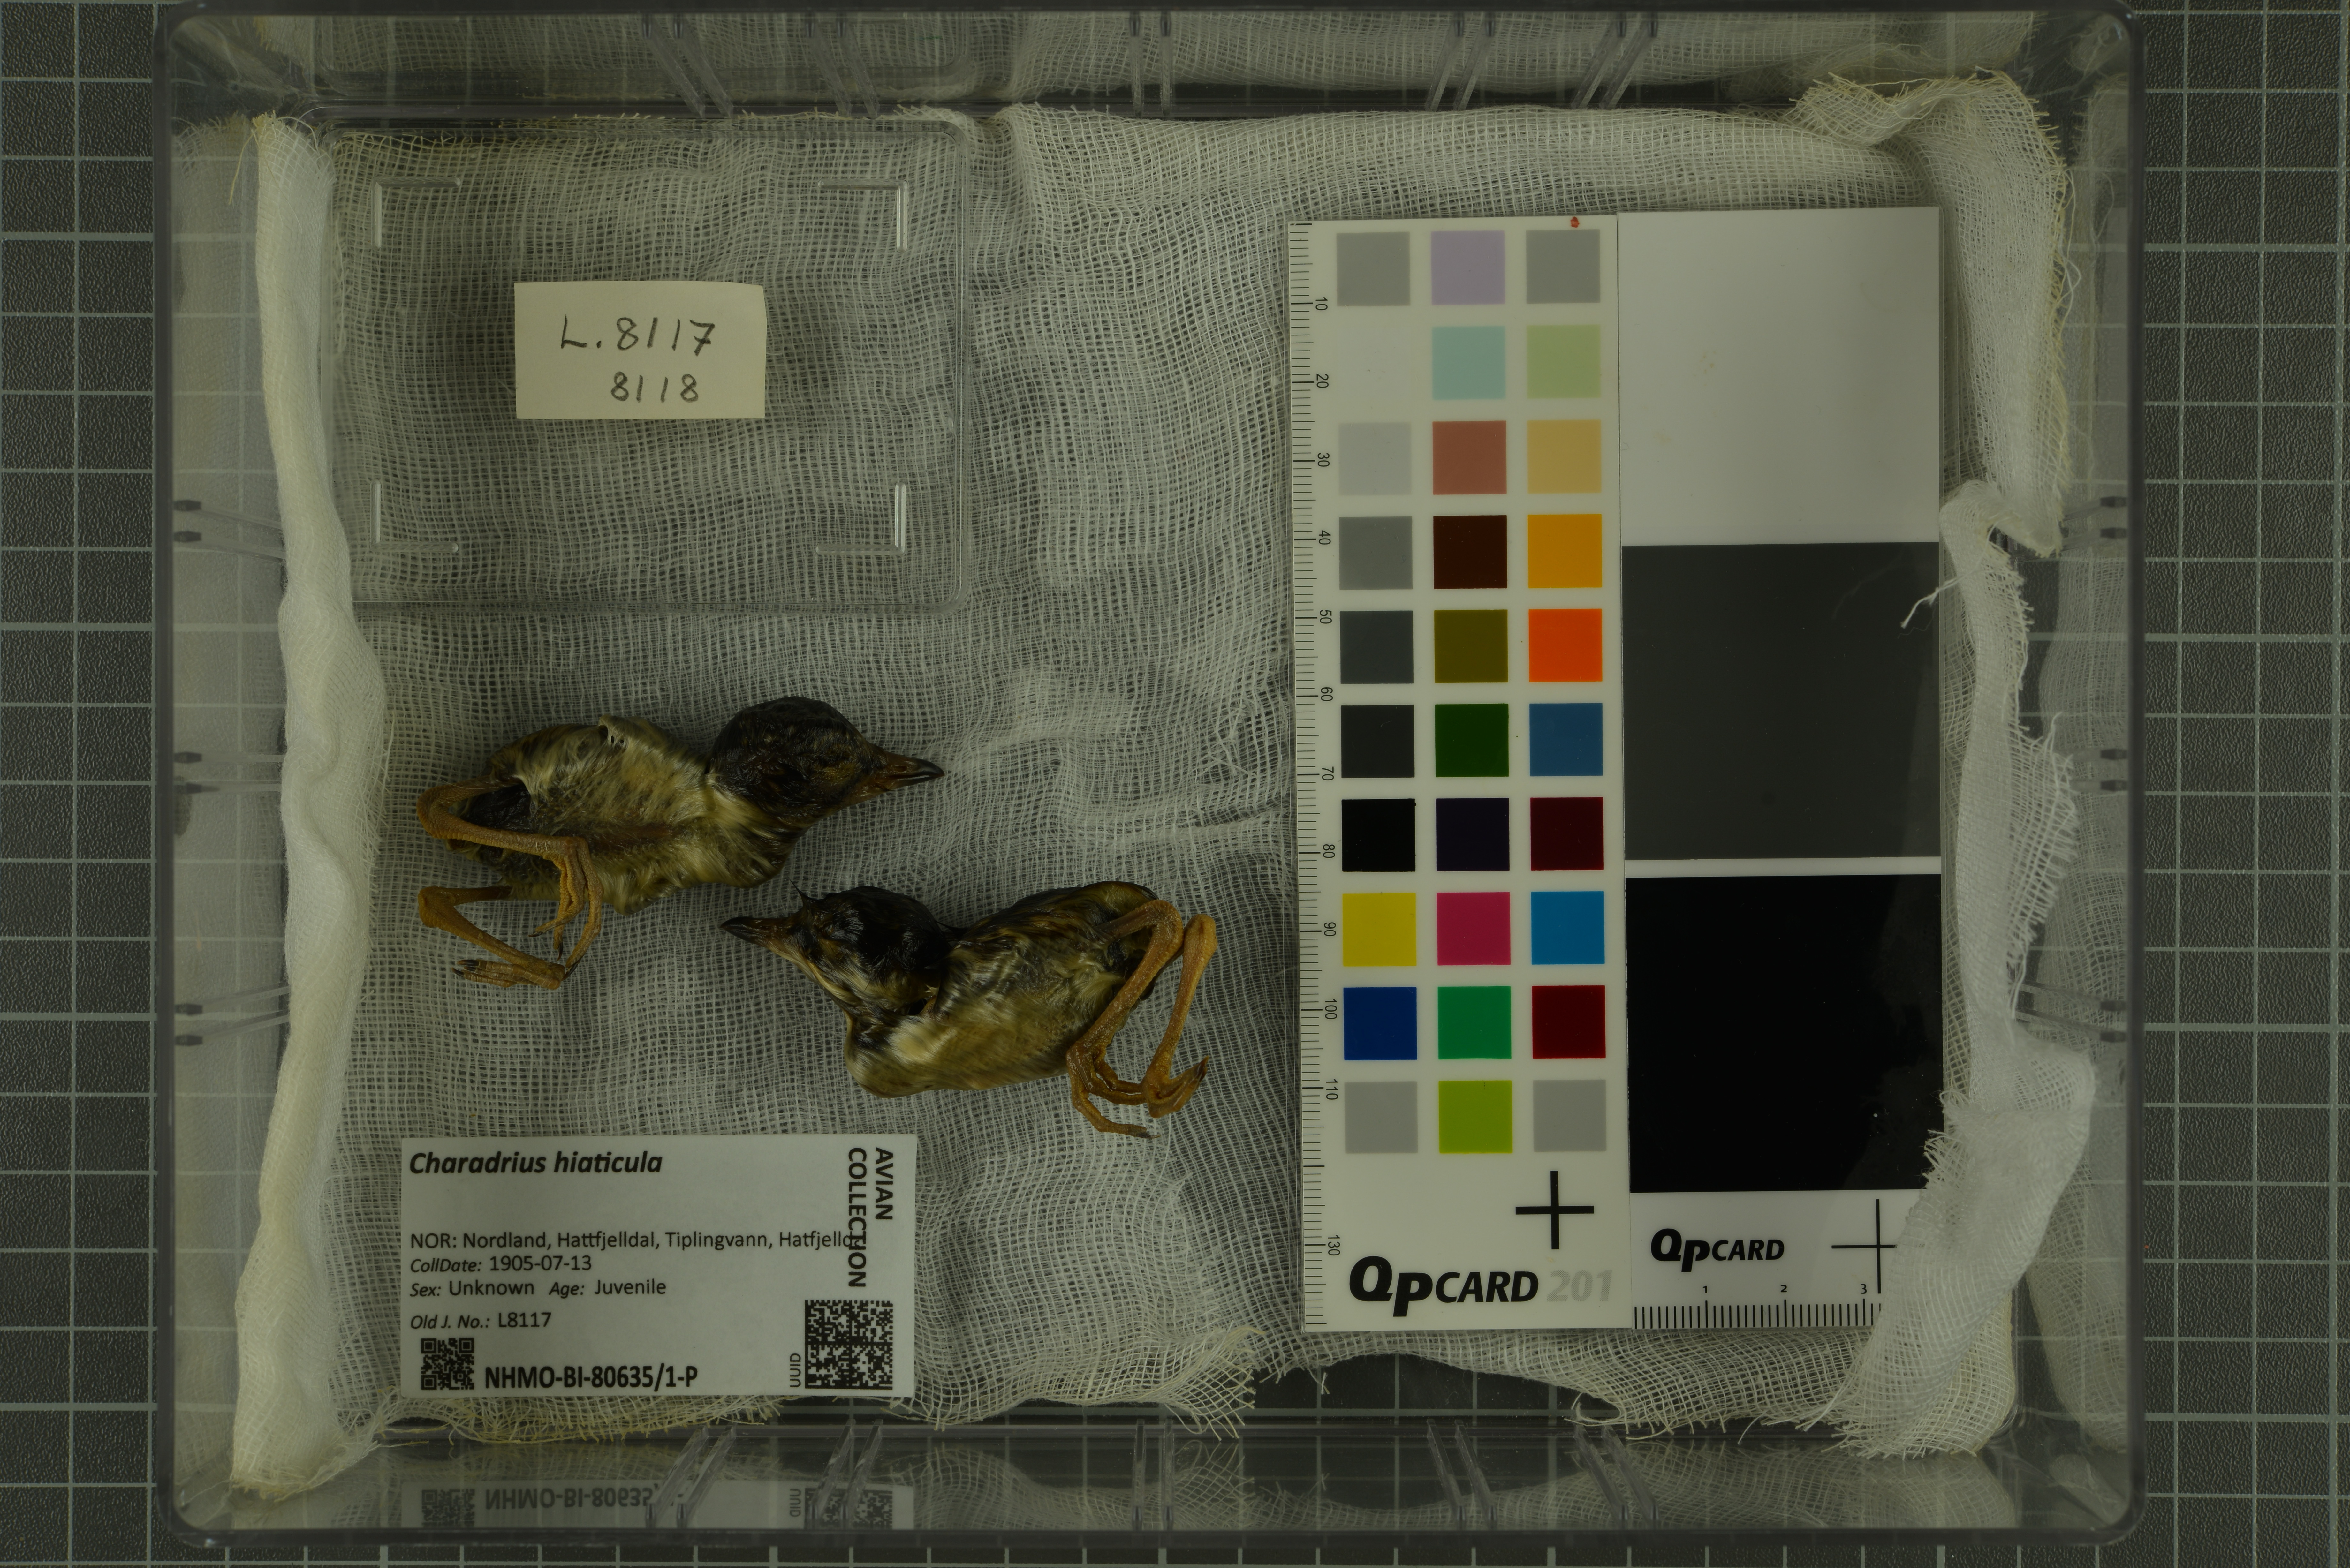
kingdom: Animalia
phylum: Chordata
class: Aves
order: Charadriiformes
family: Charadriidae
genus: Charadrius
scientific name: Charadrius hiaticula
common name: Common ringed plover
